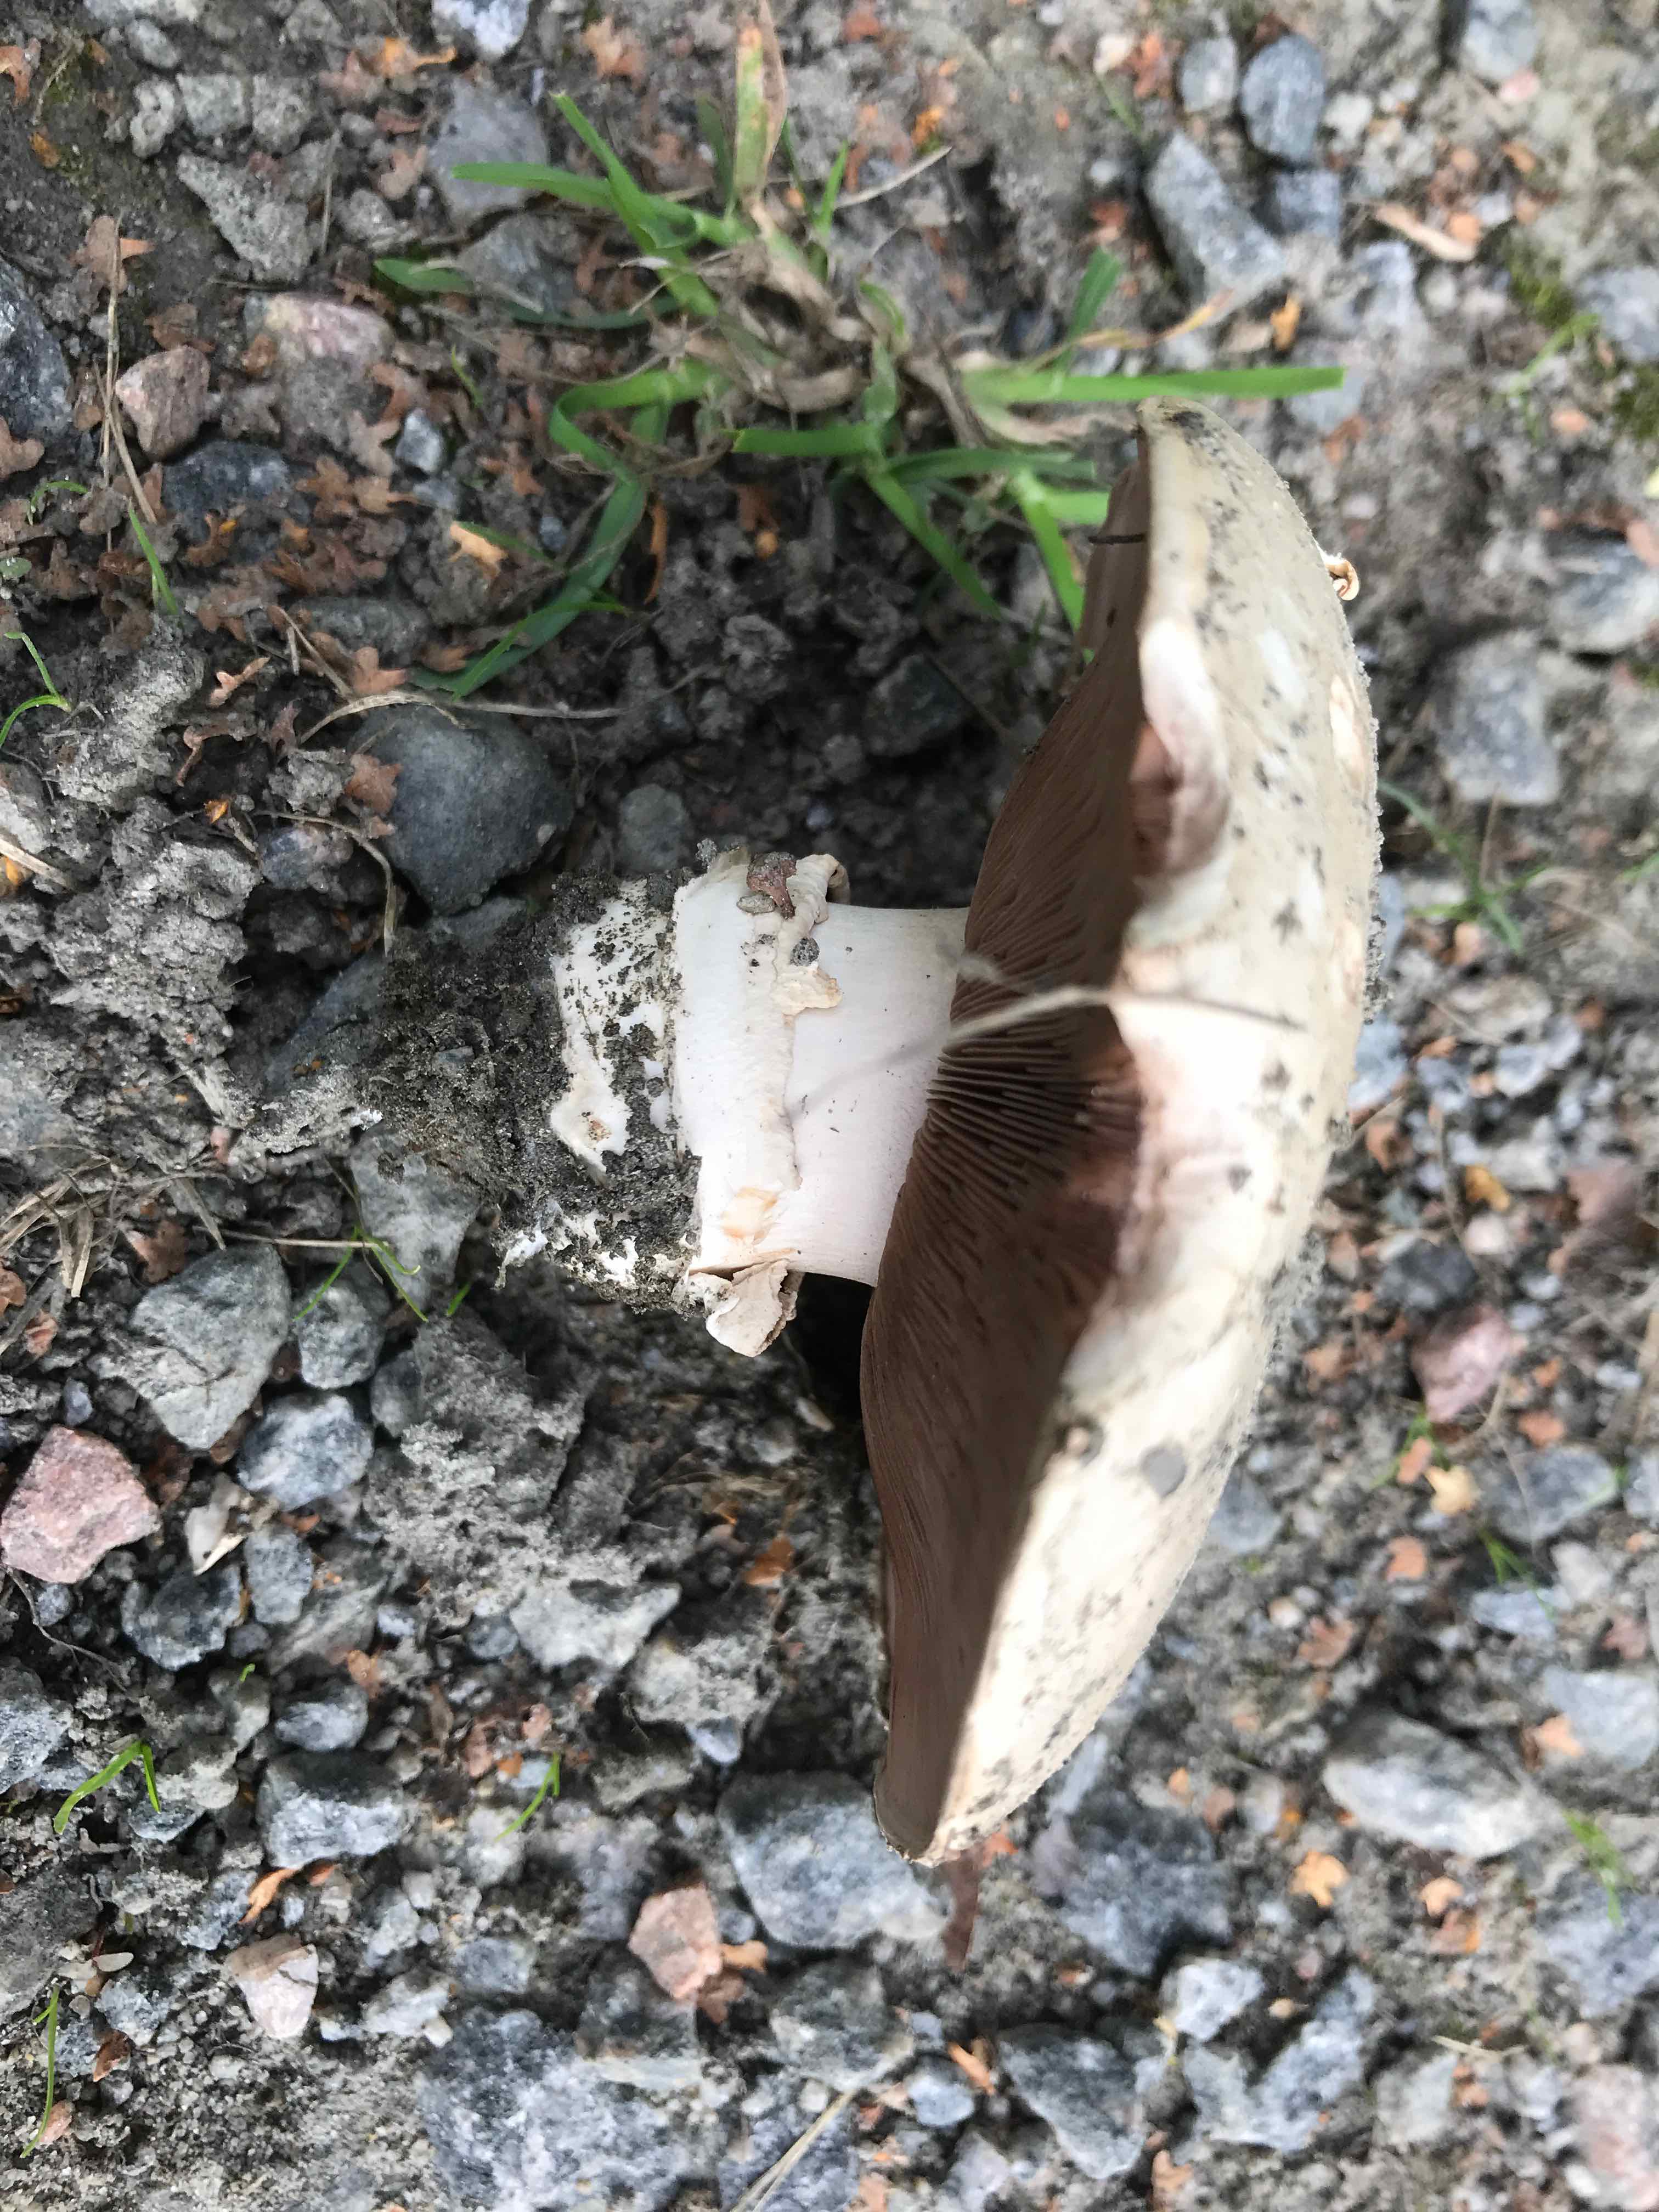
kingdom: Fungi
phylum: Basidiomycota
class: Agaricomycetes
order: Agaricales
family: Agaricaceae
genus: Agaricus
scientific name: Agaricus bitorquis
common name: vej-champignon
